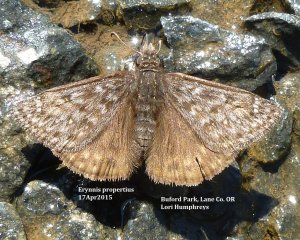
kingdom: Animalia
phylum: Arthropoda
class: Insecta
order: Lepidoptera
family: Hesperiidae
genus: Erynnis
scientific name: Erynnis propertius
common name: Propertius Duskywing
